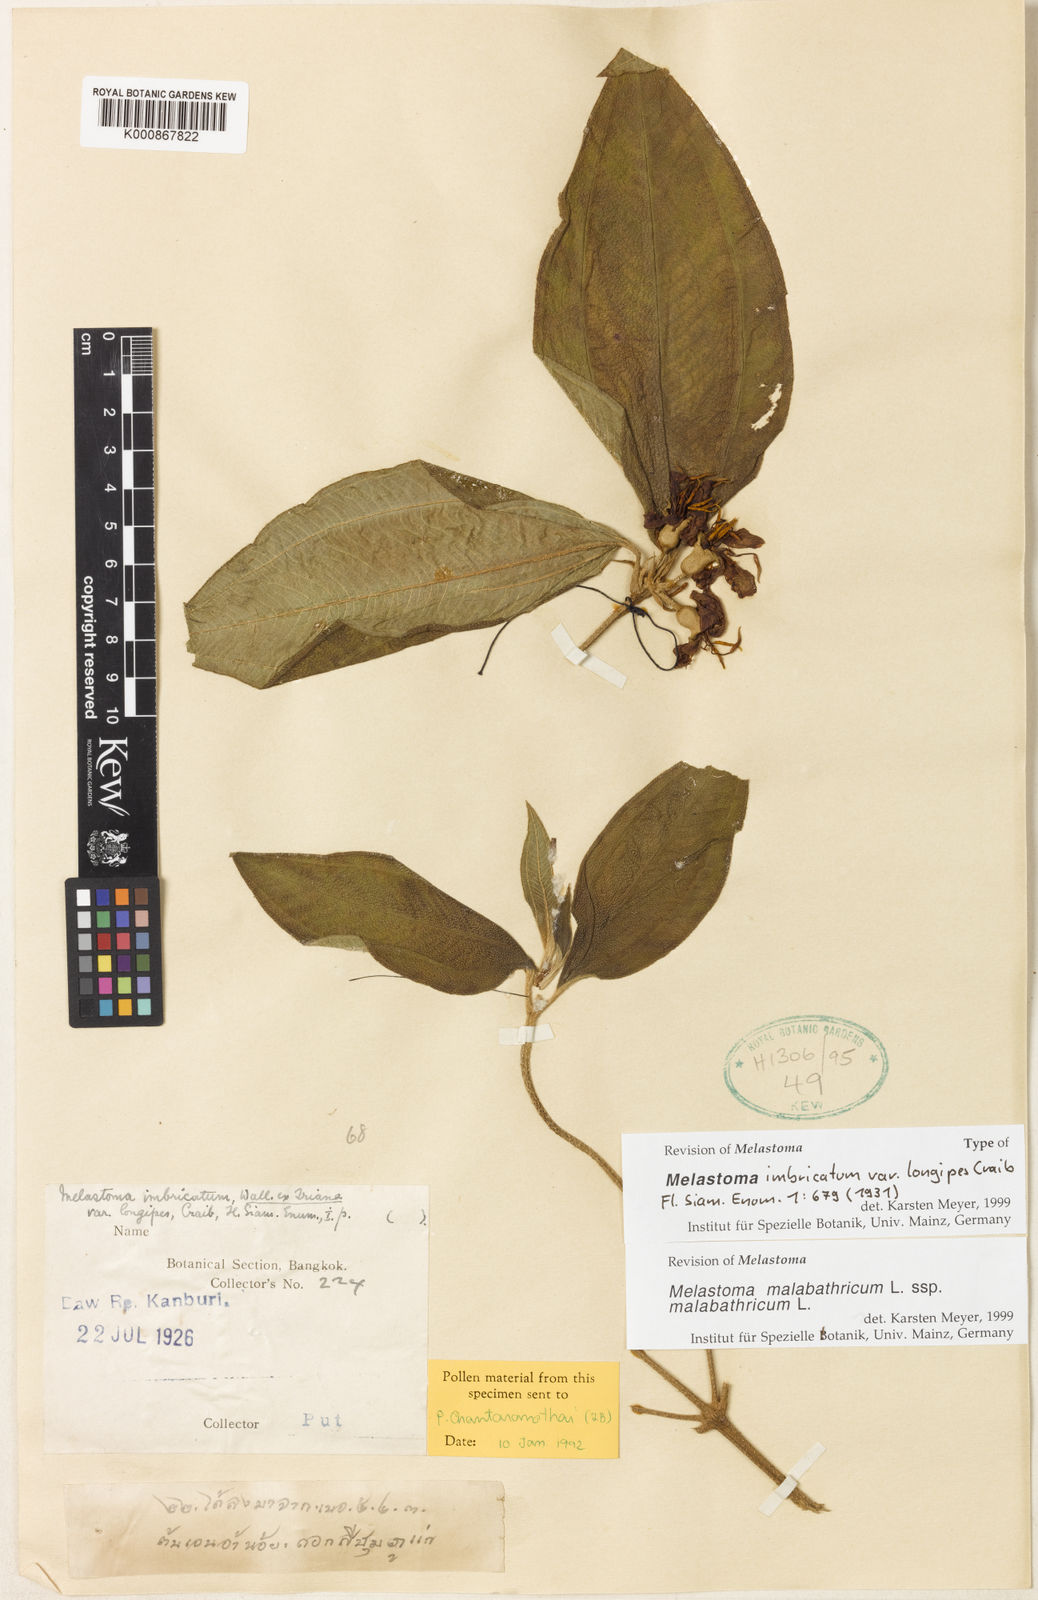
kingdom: Plantae
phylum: Tracheophyta
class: Magnoliopsida
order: Myrtales
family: Melastomataceae
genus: Melastoma
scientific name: Melastoma malabathricum
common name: Indian-rhododendron
